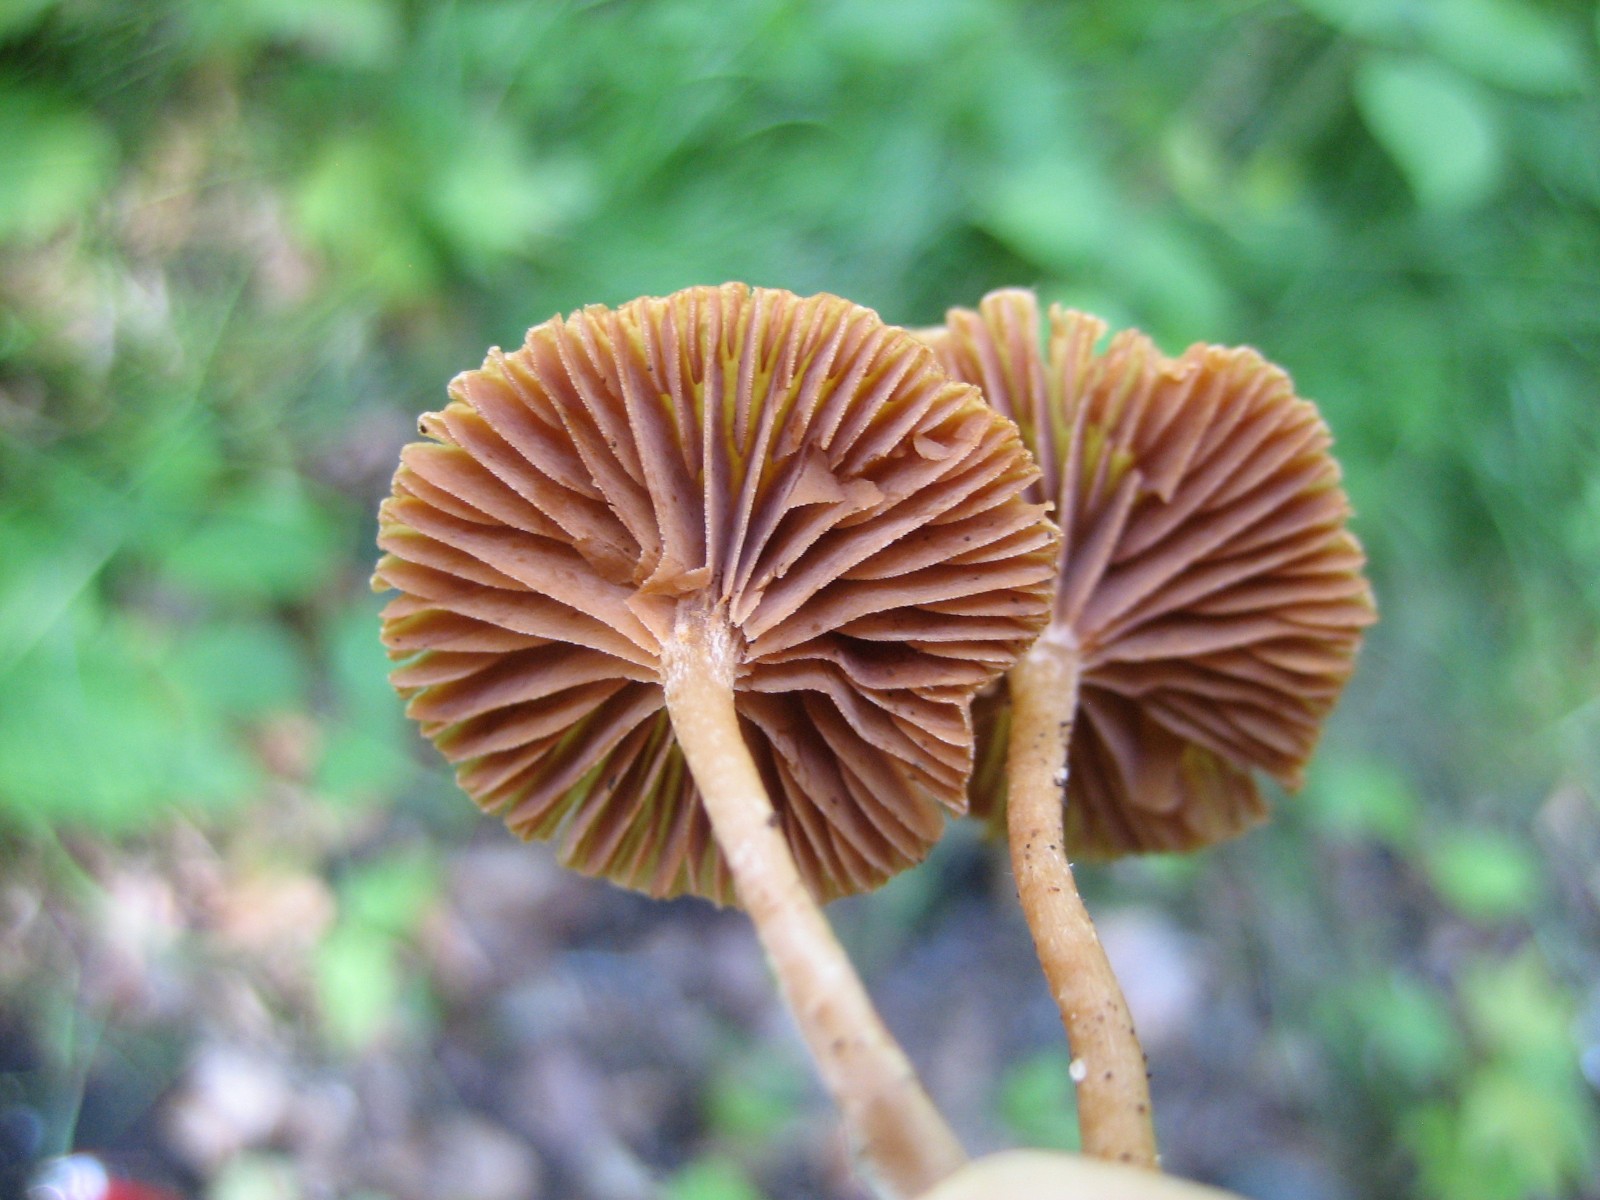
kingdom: Fungi
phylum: Basidiomycota
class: Agaricomycetes
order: Agaricales
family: Tubariaceae
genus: Tubaria
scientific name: Tubaria
